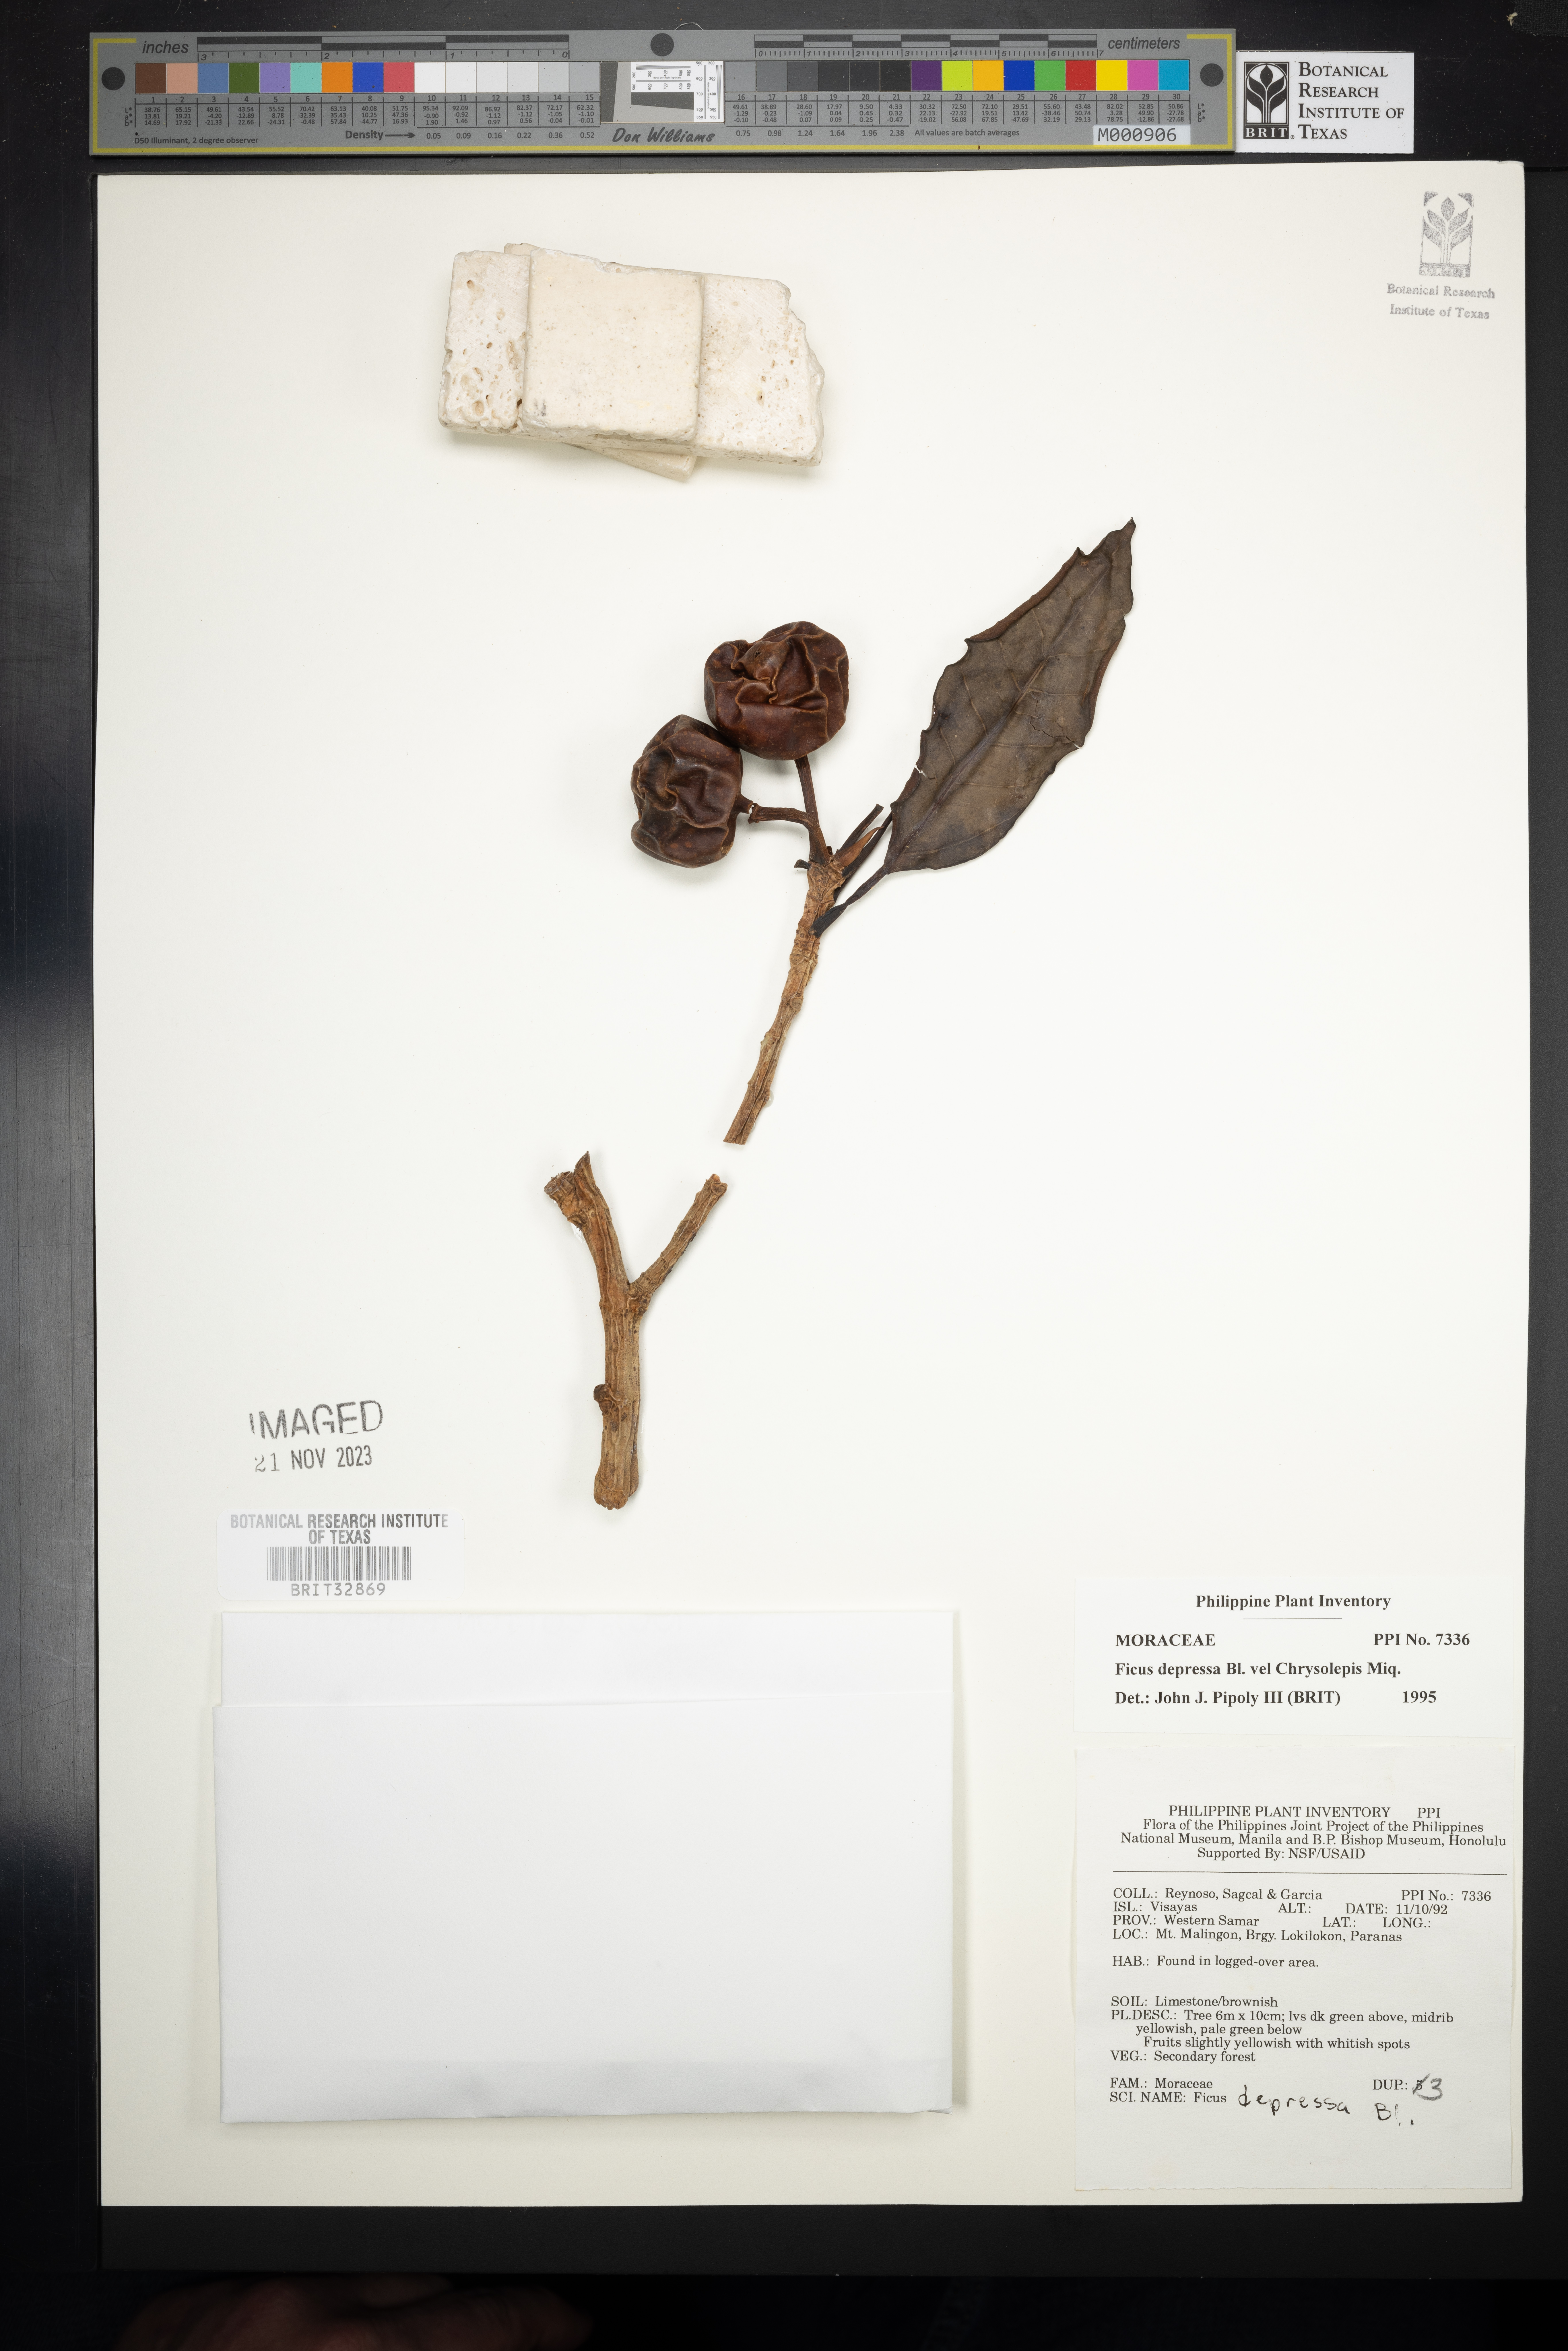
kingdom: Plantae
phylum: Tracheophyta
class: Magnoliopsida
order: Rosales
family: Moraceae
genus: Ficus
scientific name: Ficus depressa
